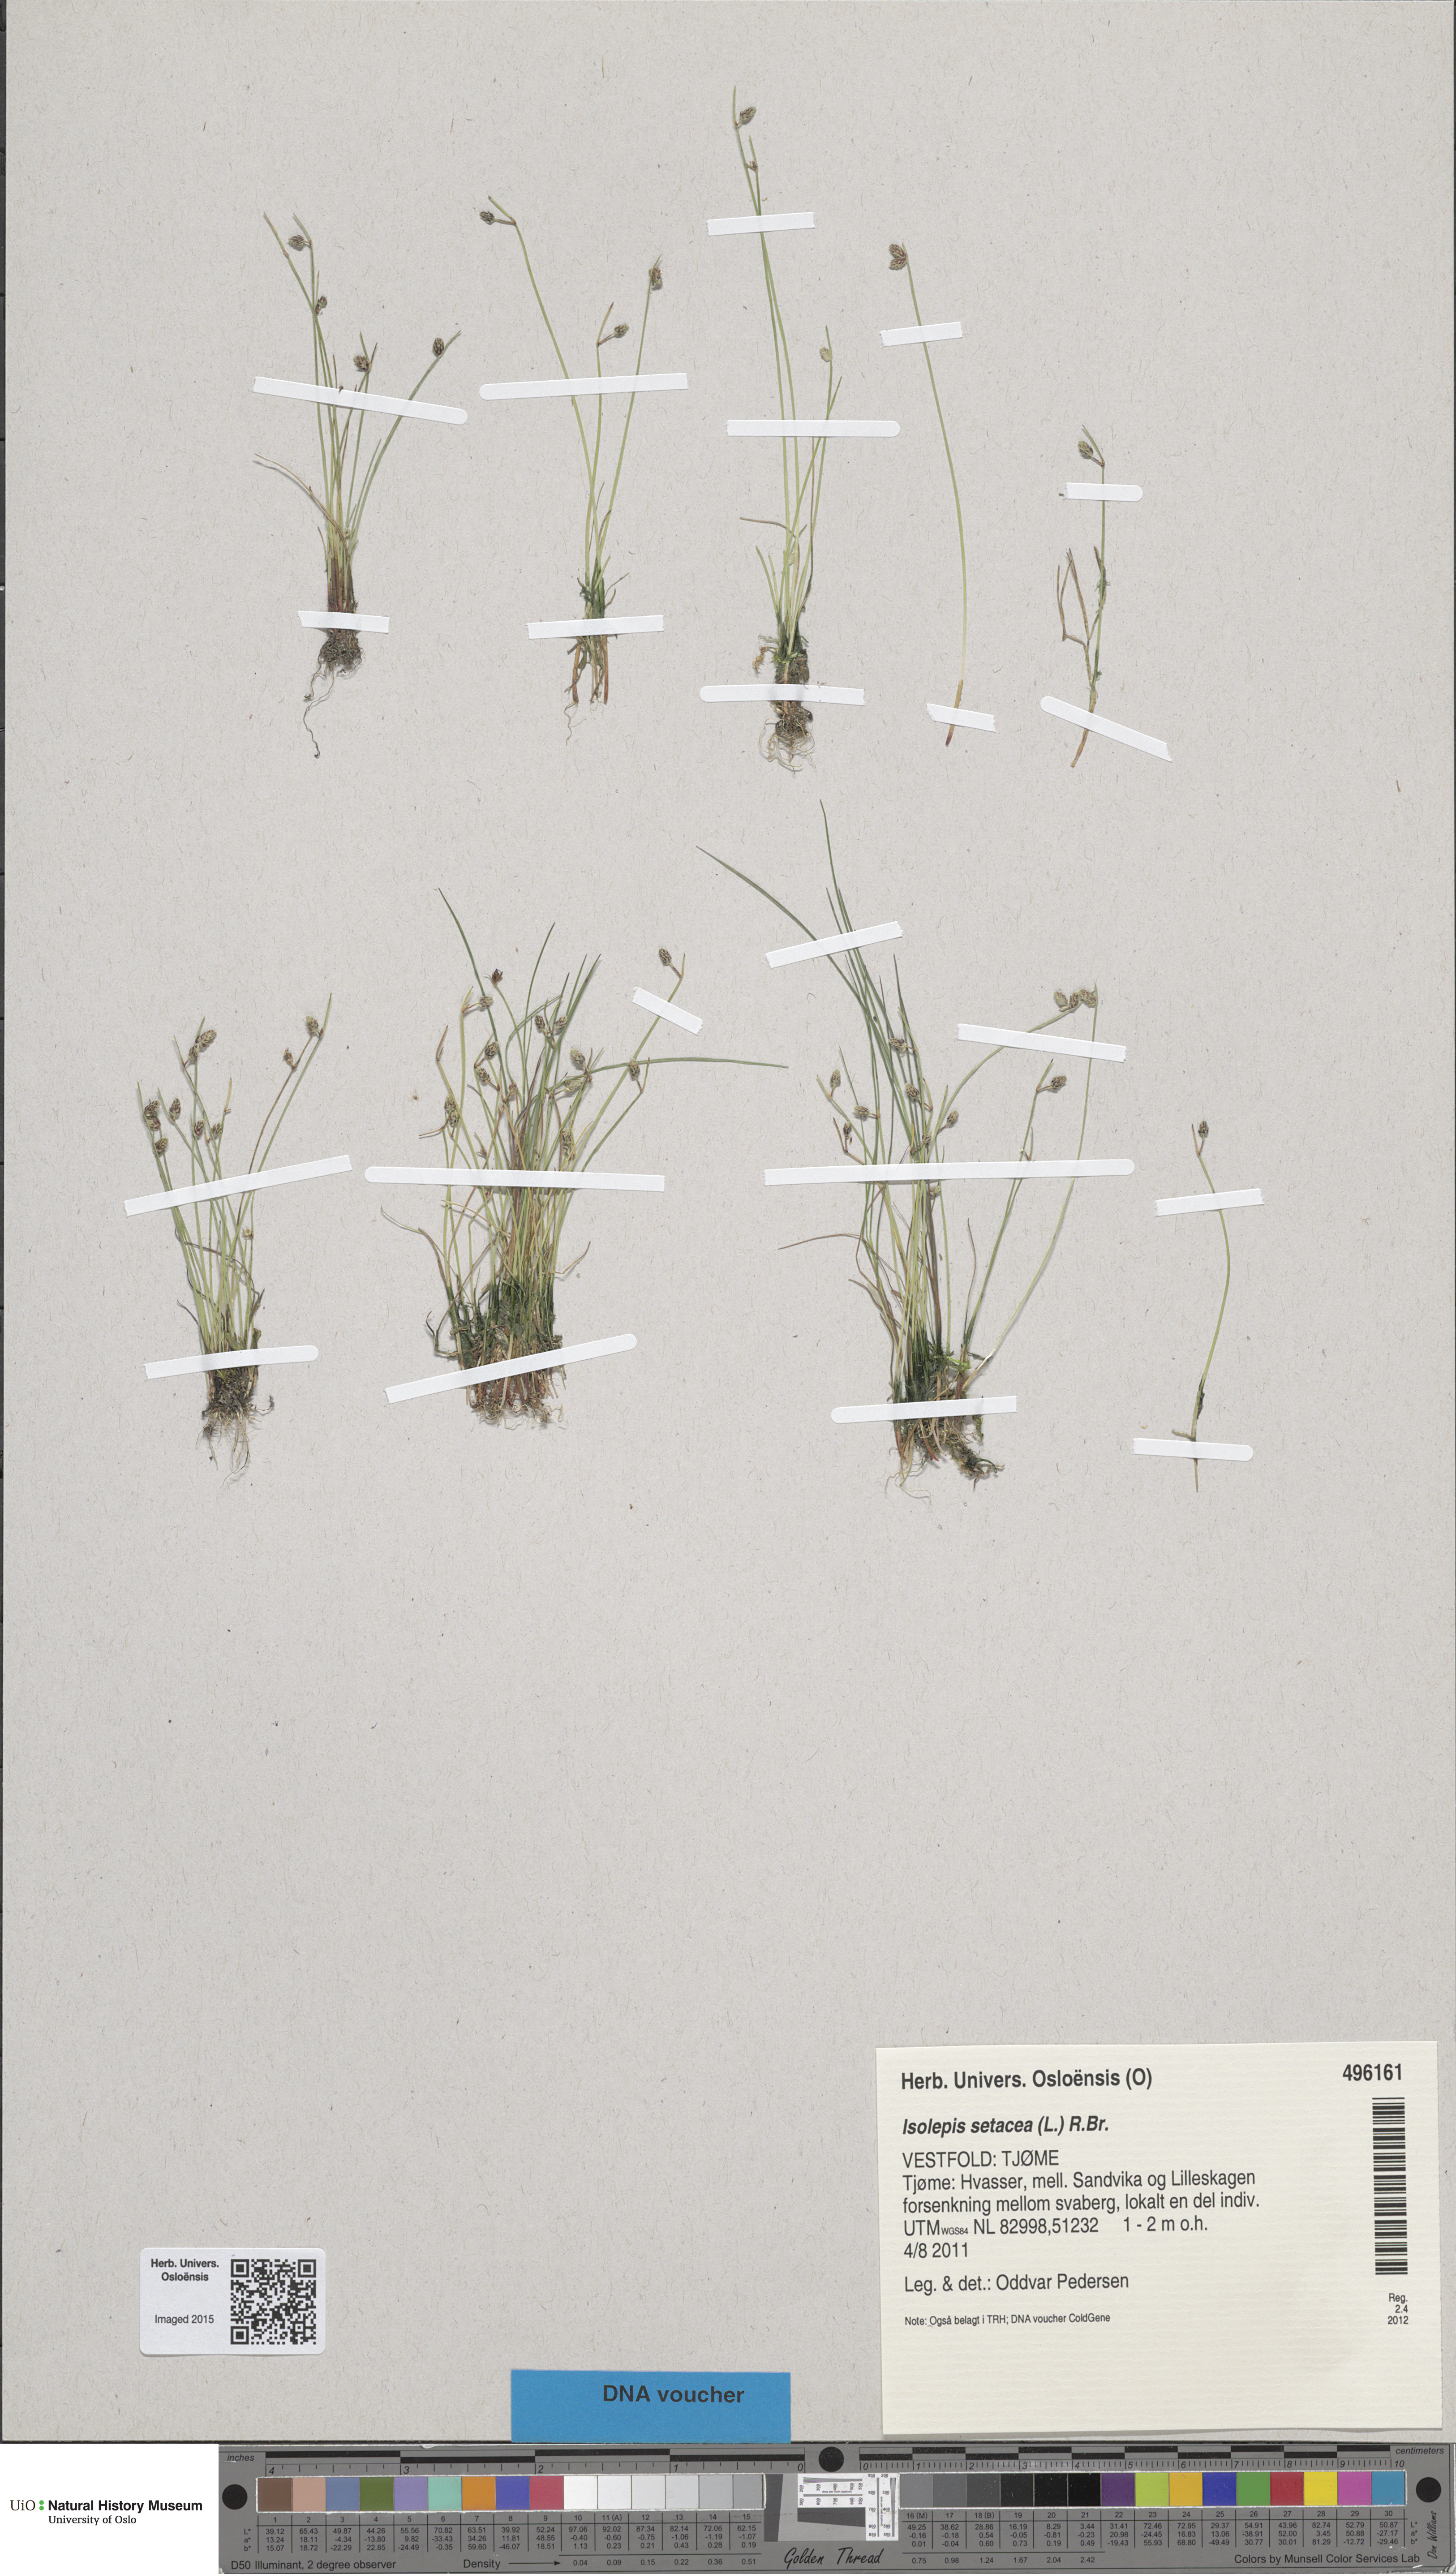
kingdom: Plantae
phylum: Tracheophyta
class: Liliopsida
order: Poales
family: Cyperaceae
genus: Isolepis
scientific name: Isolepis setacea
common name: Bristle club-rush
